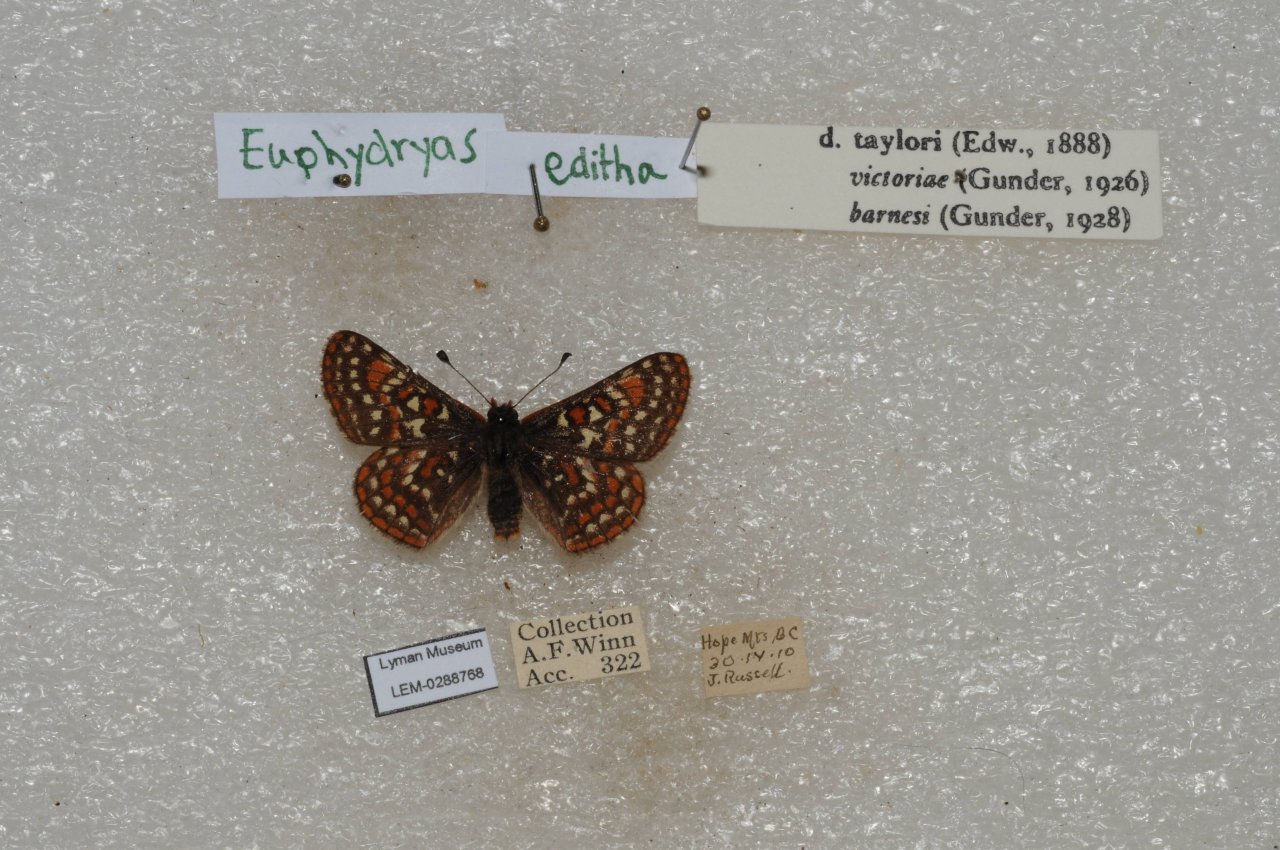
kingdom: Animalia
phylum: Arthropoda
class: Insecta
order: Lepidoptera
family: Nymphalidae
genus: Occidryas
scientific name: Occidryas editha
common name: Edith's Checkerspot
